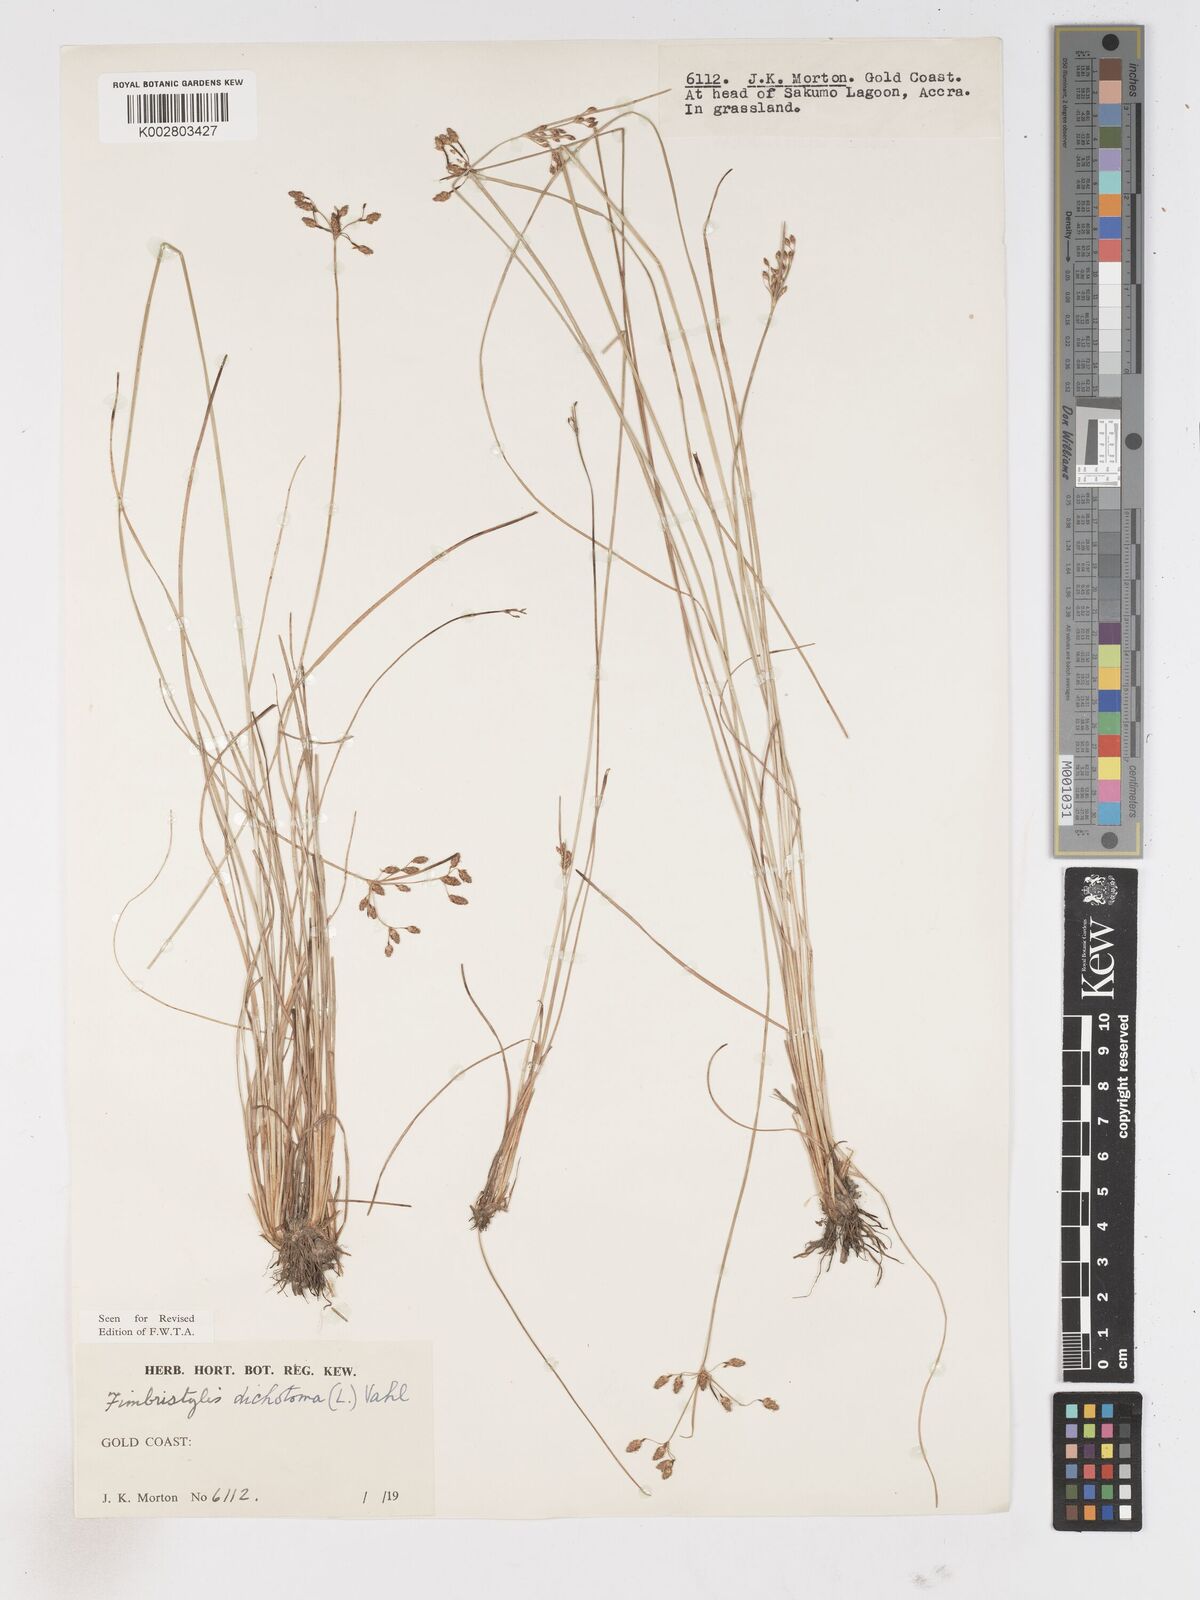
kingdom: Plantae
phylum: Tracheophyta
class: Liliopsida
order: Poales
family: Cyperaceae
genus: Fimbristylis
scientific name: Fimbristylis dichotoma
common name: Forked fimbry
